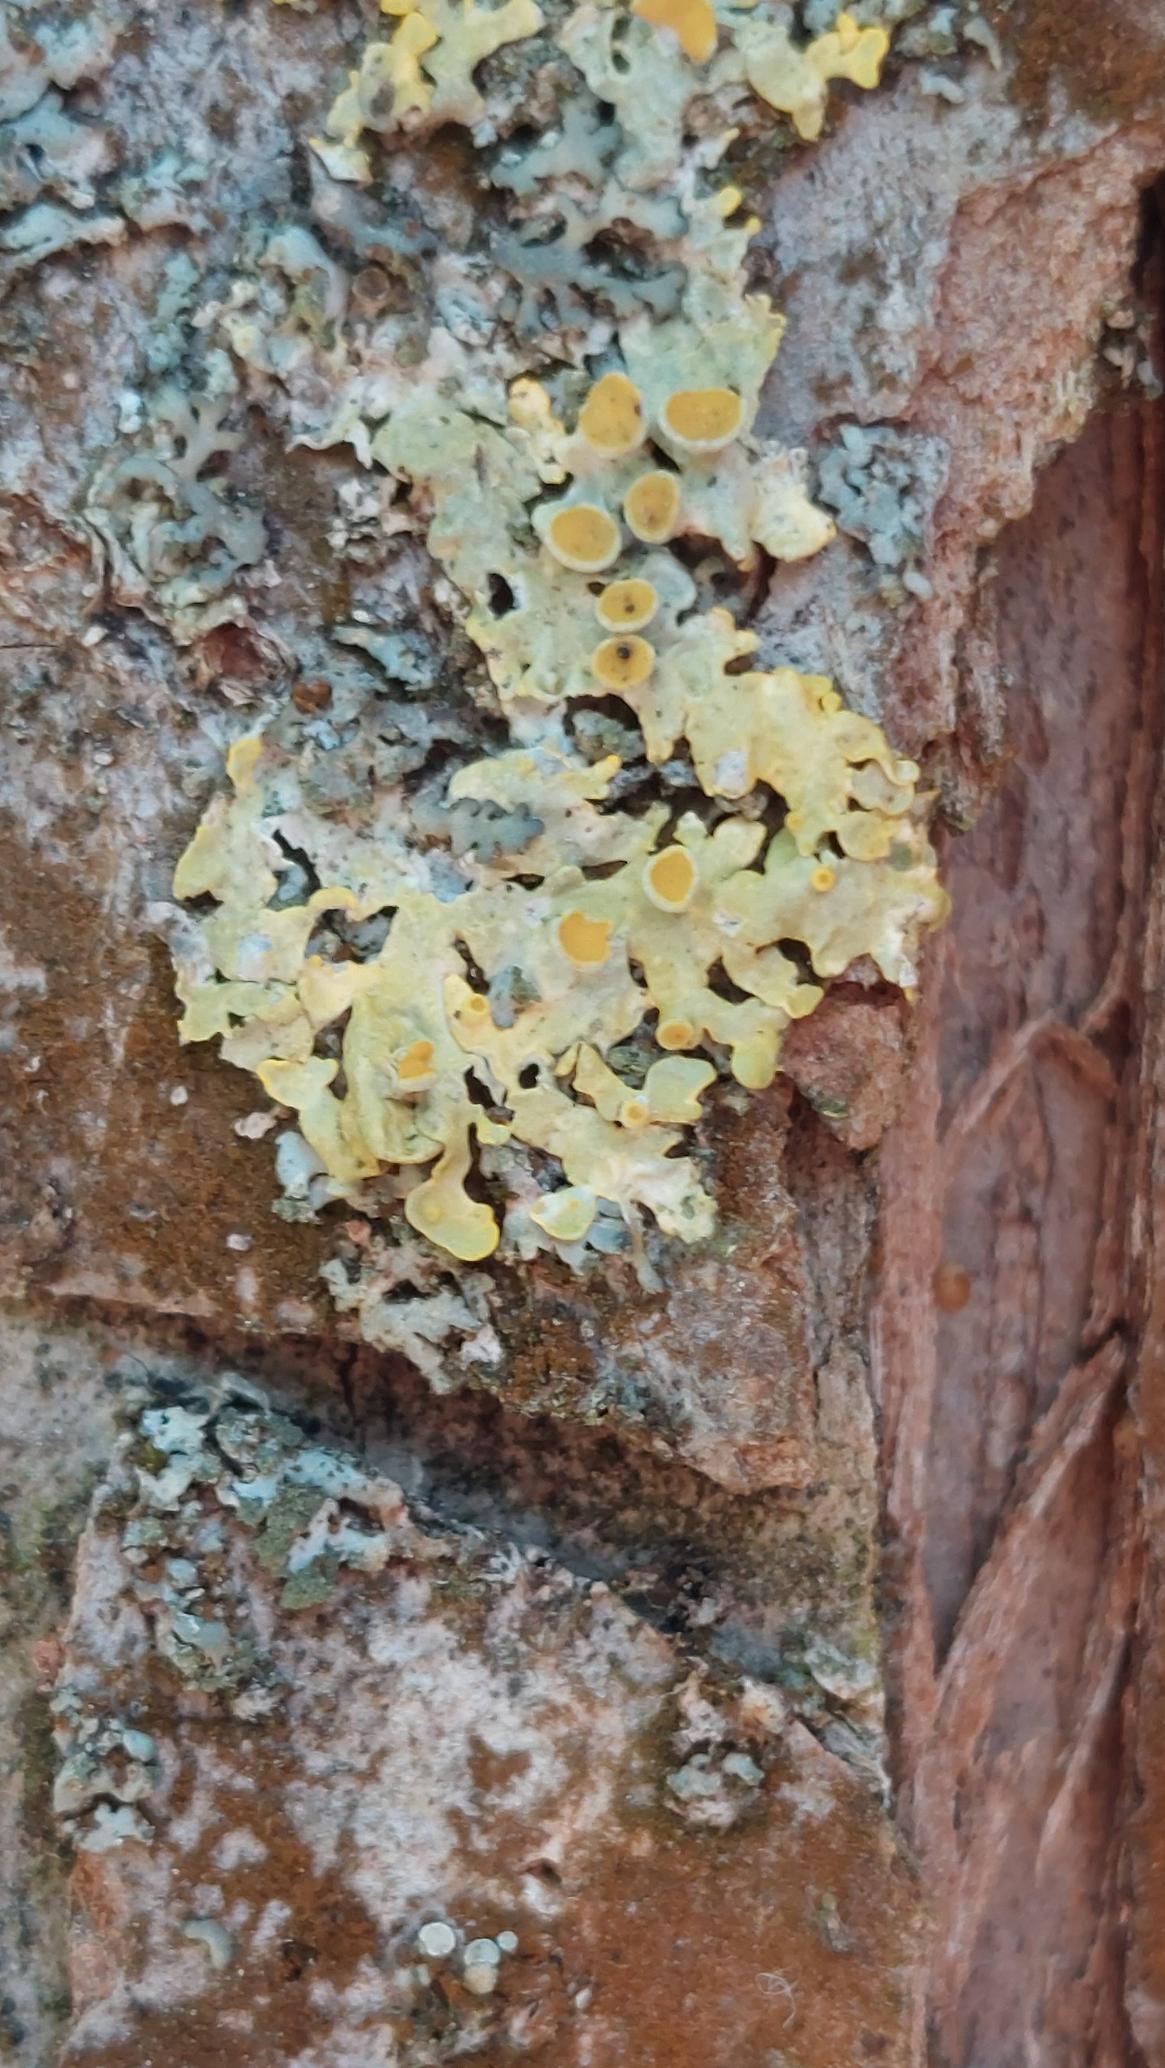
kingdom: Fungi
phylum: Ascomycota
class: Lecanoromycetes
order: Teloschistales
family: Teloschistaceae
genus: Xanthoria
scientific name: Xanthoria parietina
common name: Almindelig væggelav
